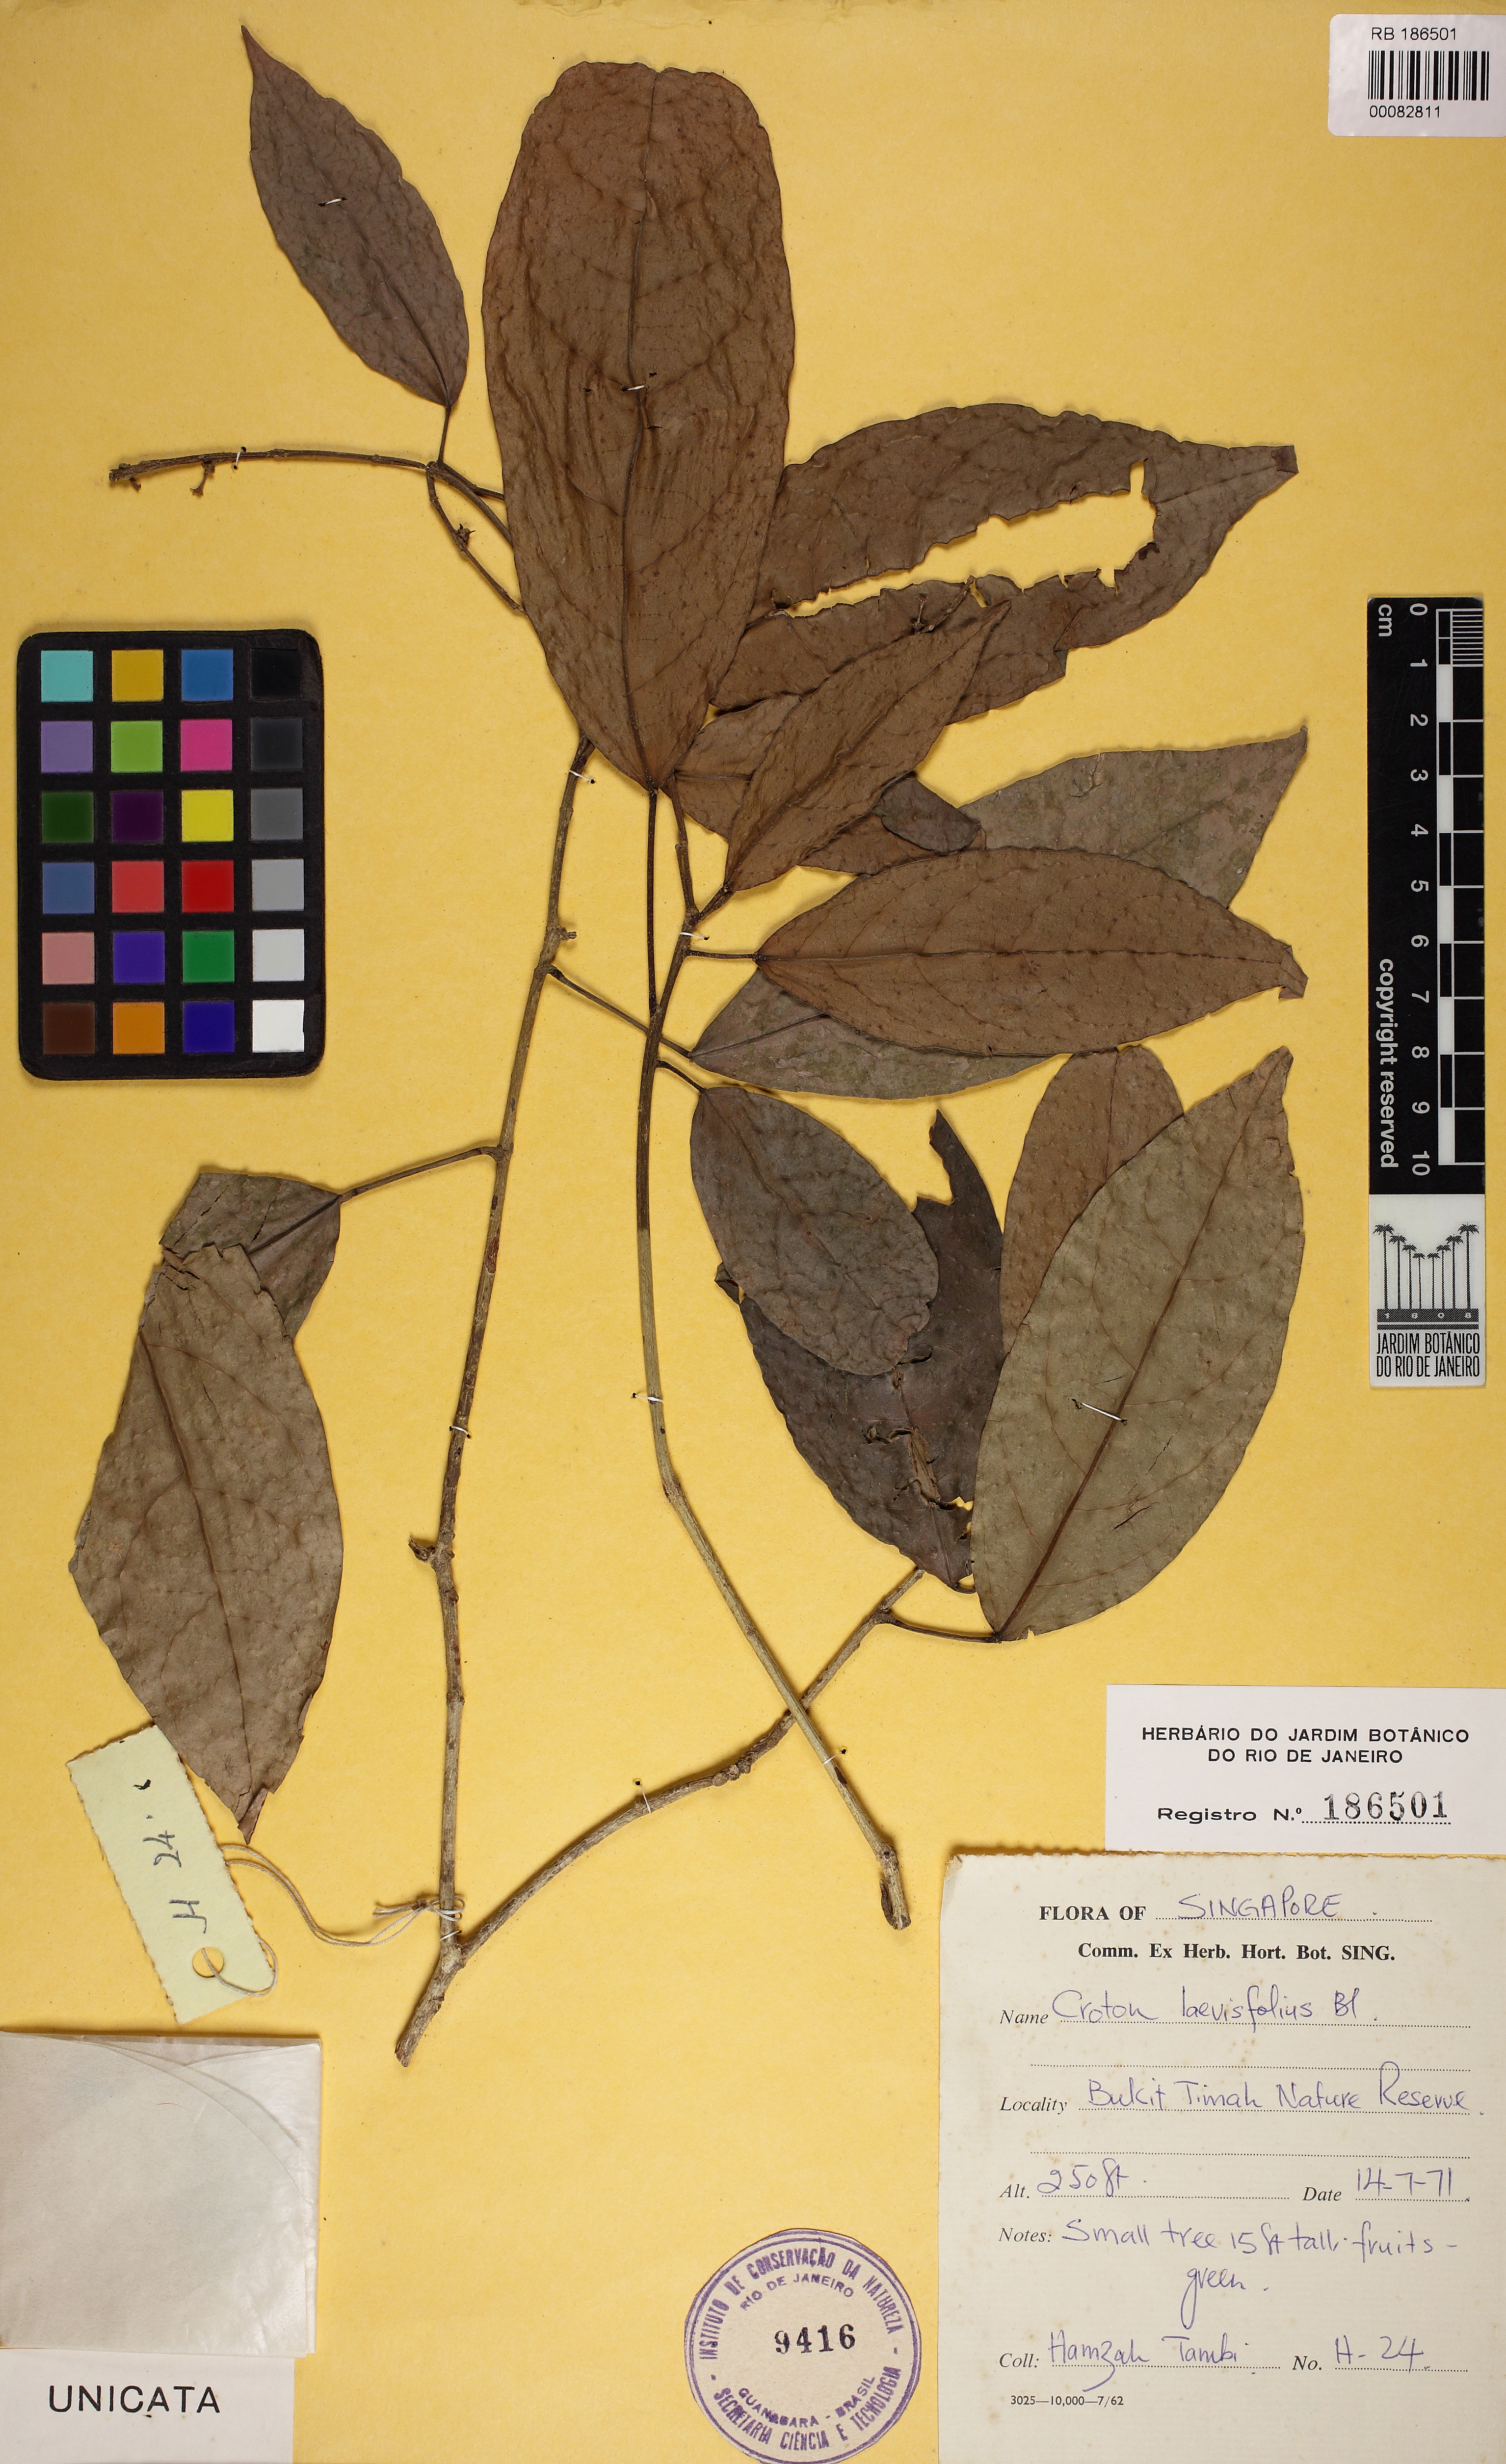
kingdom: Plantae
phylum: Tracheophyta
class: Magnoliopsida
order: Malpighiales
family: Euphorbiaceae
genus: Croton
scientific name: Croton oblongus
